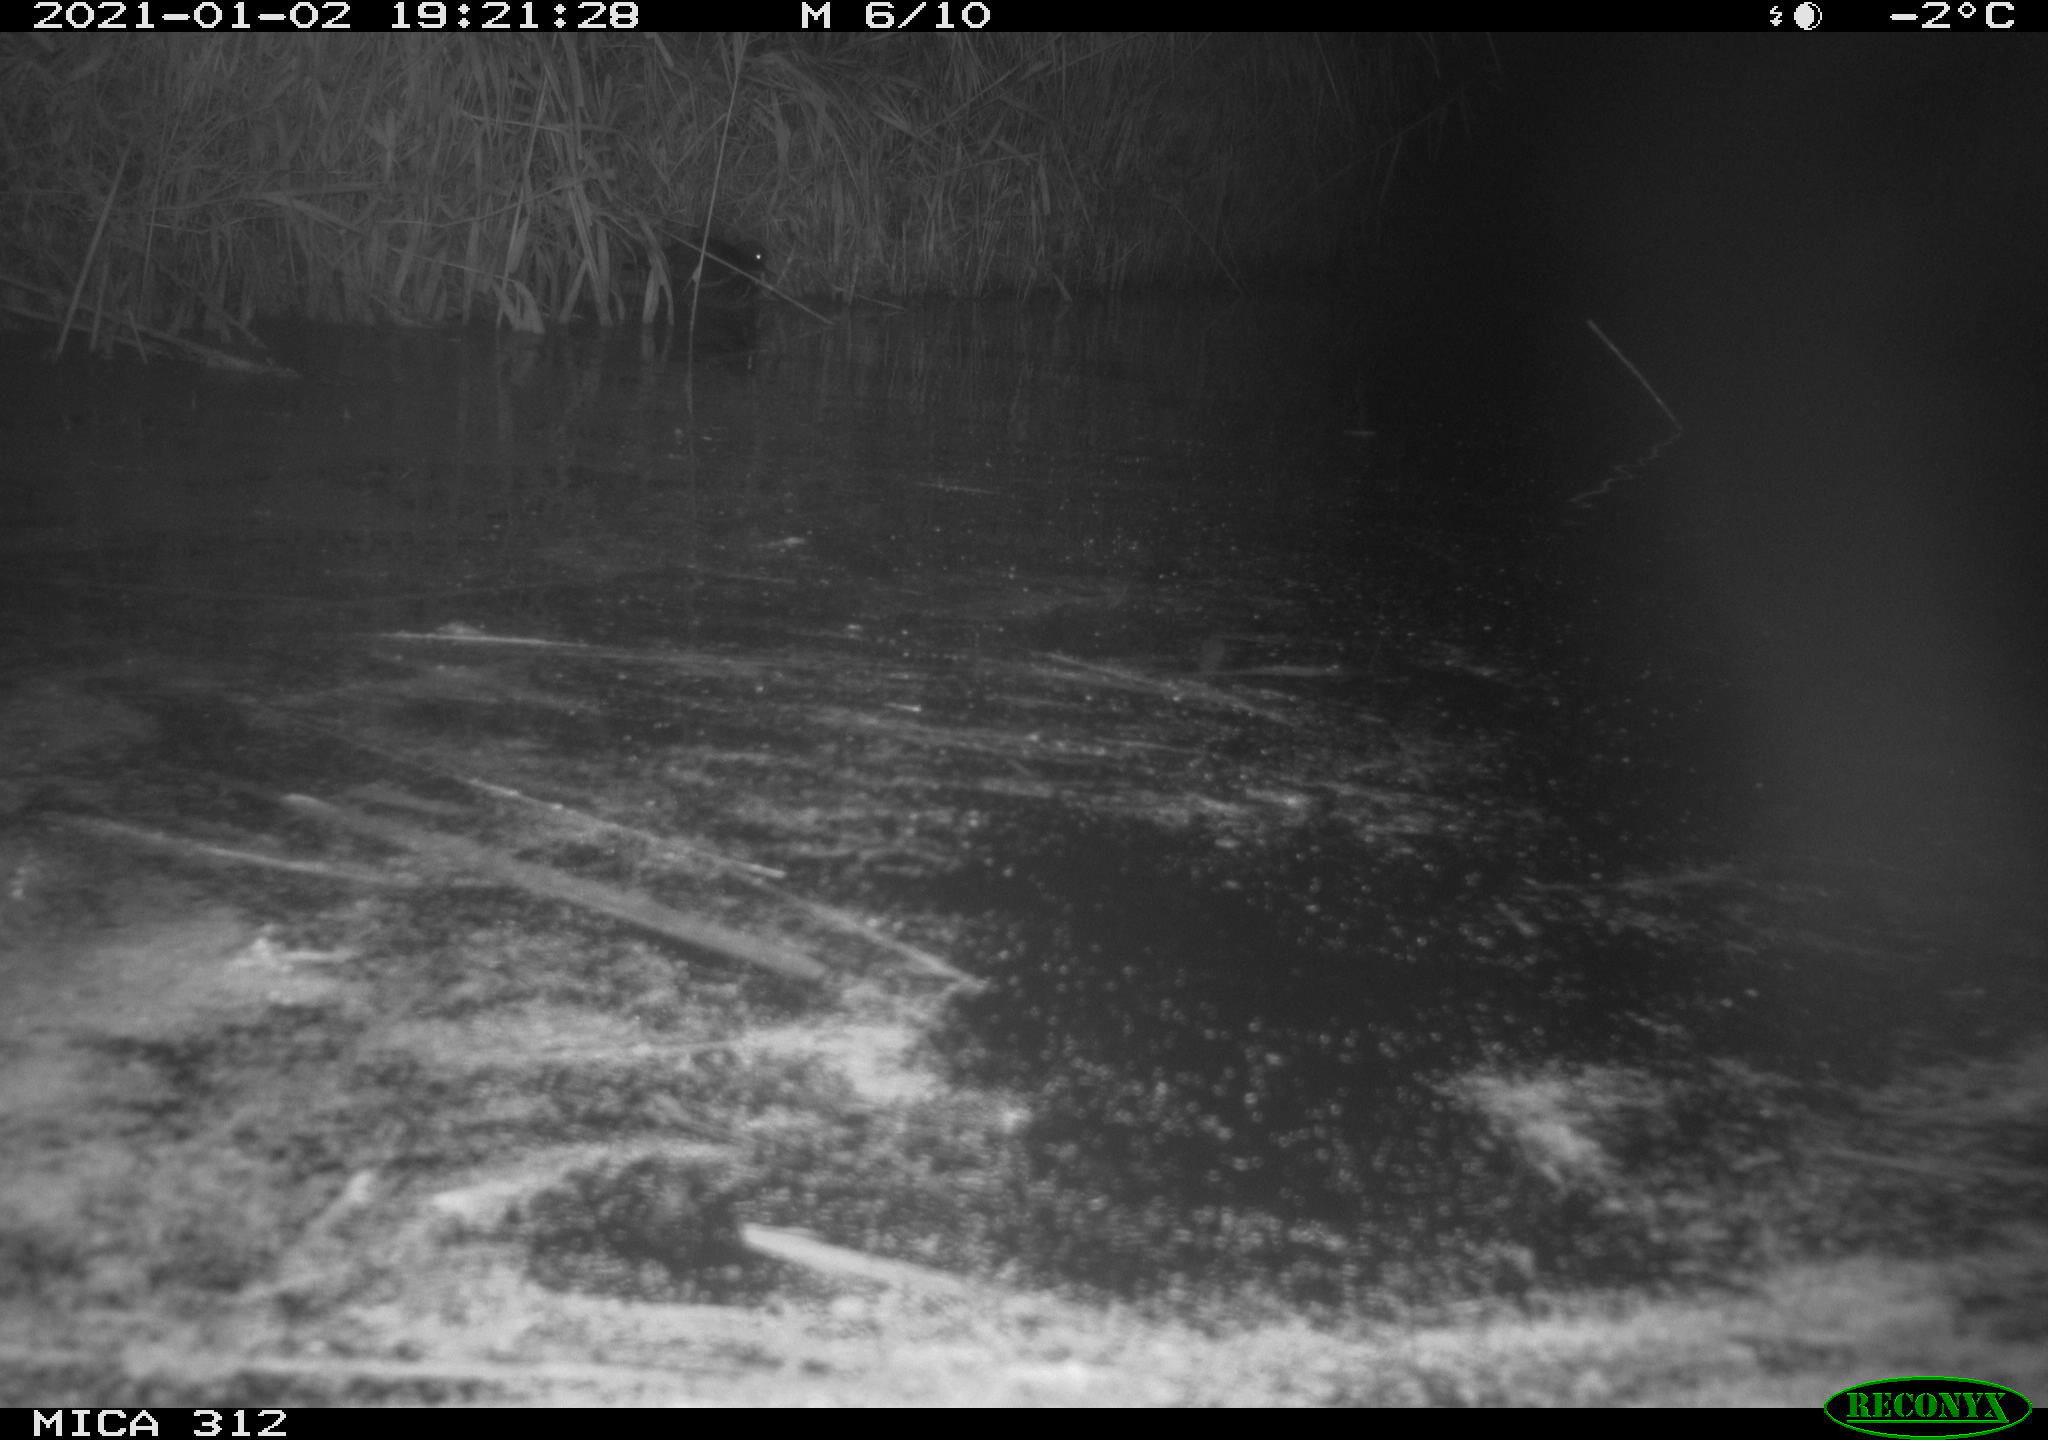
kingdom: Animalia
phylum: Chordata
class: Mammalia
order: Rodentia
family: Muridae
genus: Rattus
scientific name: Rattus norvegicus
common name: Brown rat
